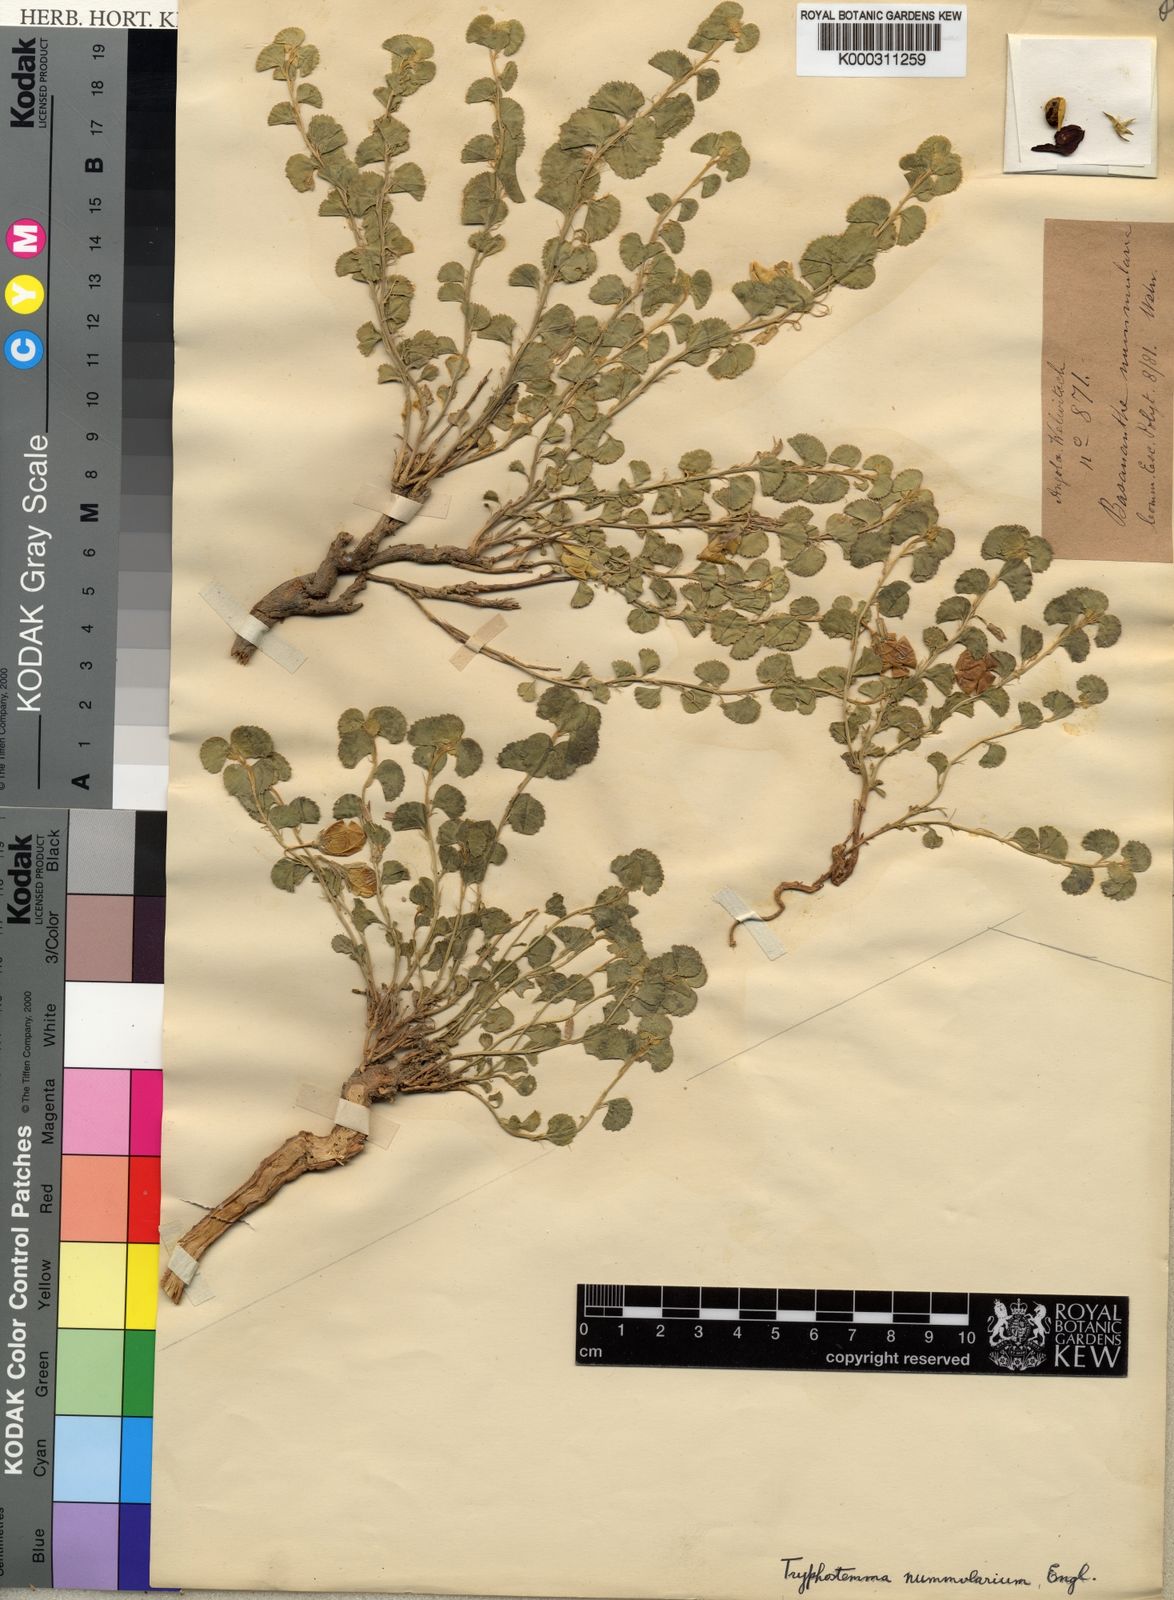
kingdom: Plantae
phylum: Tracheophyta
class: Magnoliopsida
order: Malpighiales
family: Passifloraceae
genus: Basananthe
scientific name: Basananthe nummularia
